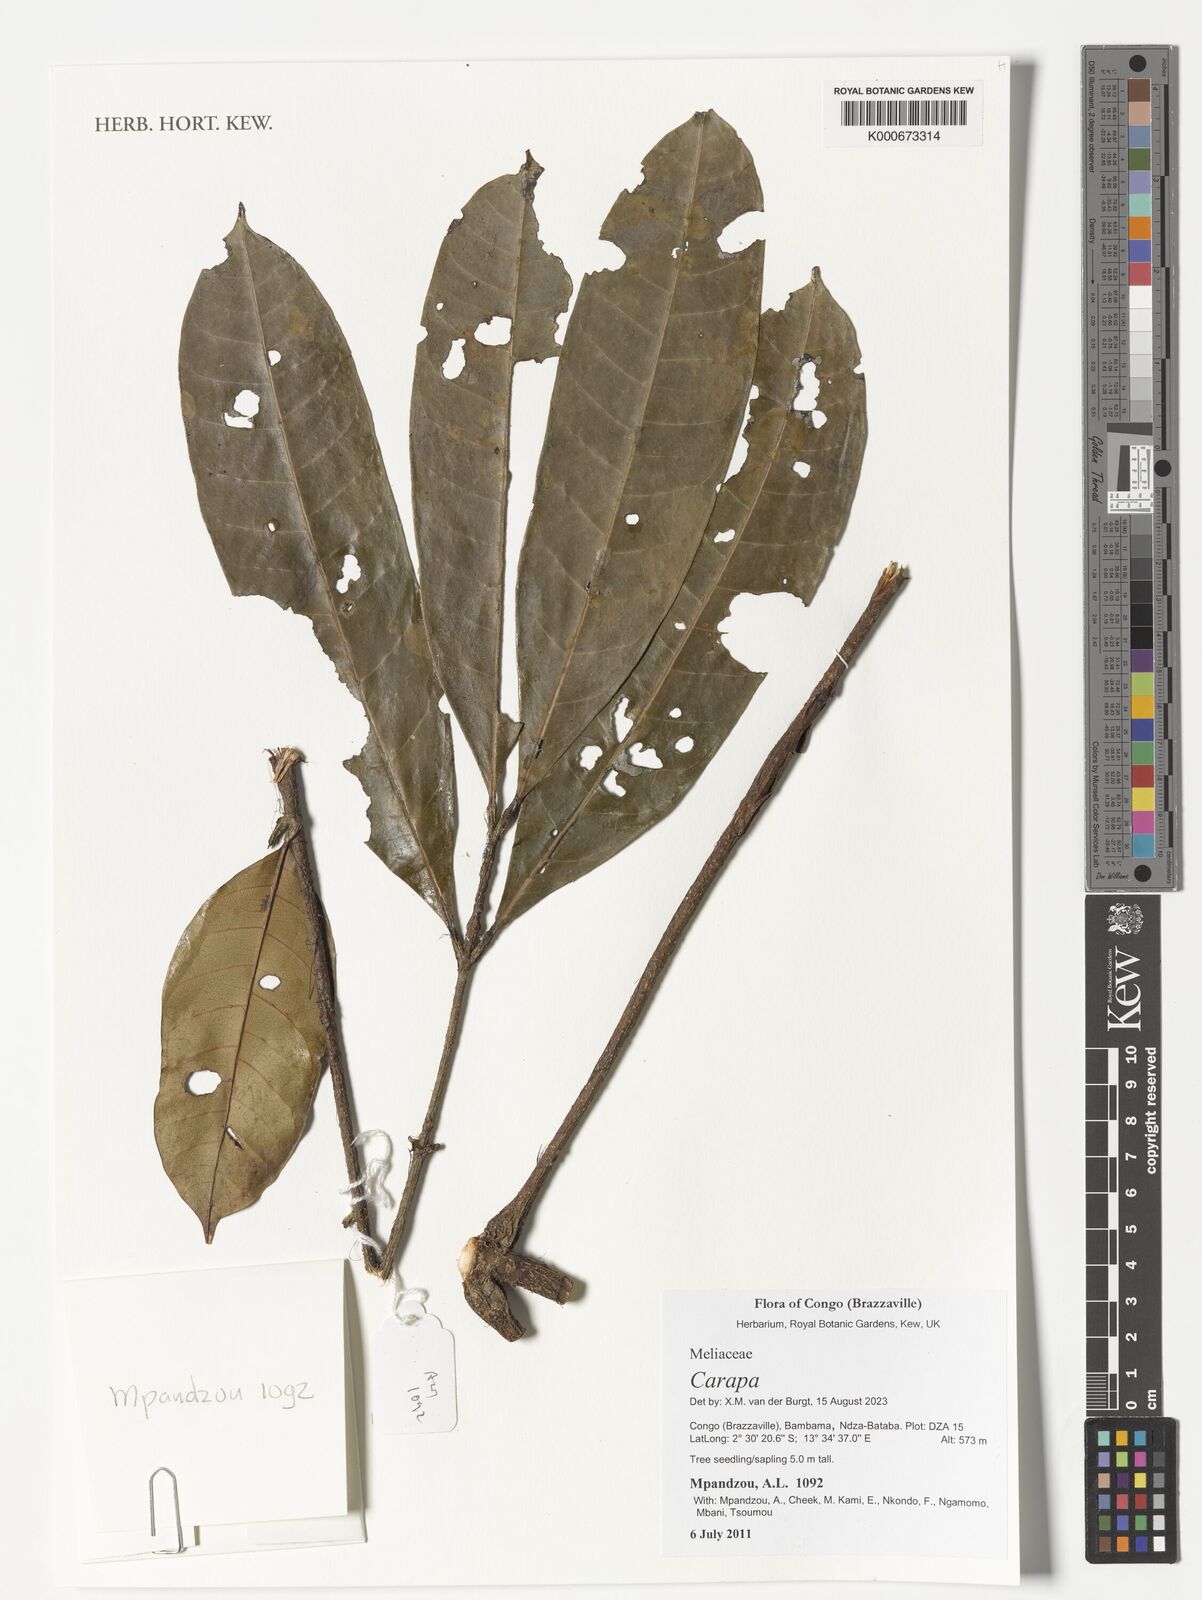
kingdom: Plantae
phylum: Tracheophyta
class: Magnoliopsida
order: Sapindales
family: Meliaceae
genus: Carapa
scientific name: Carapa
